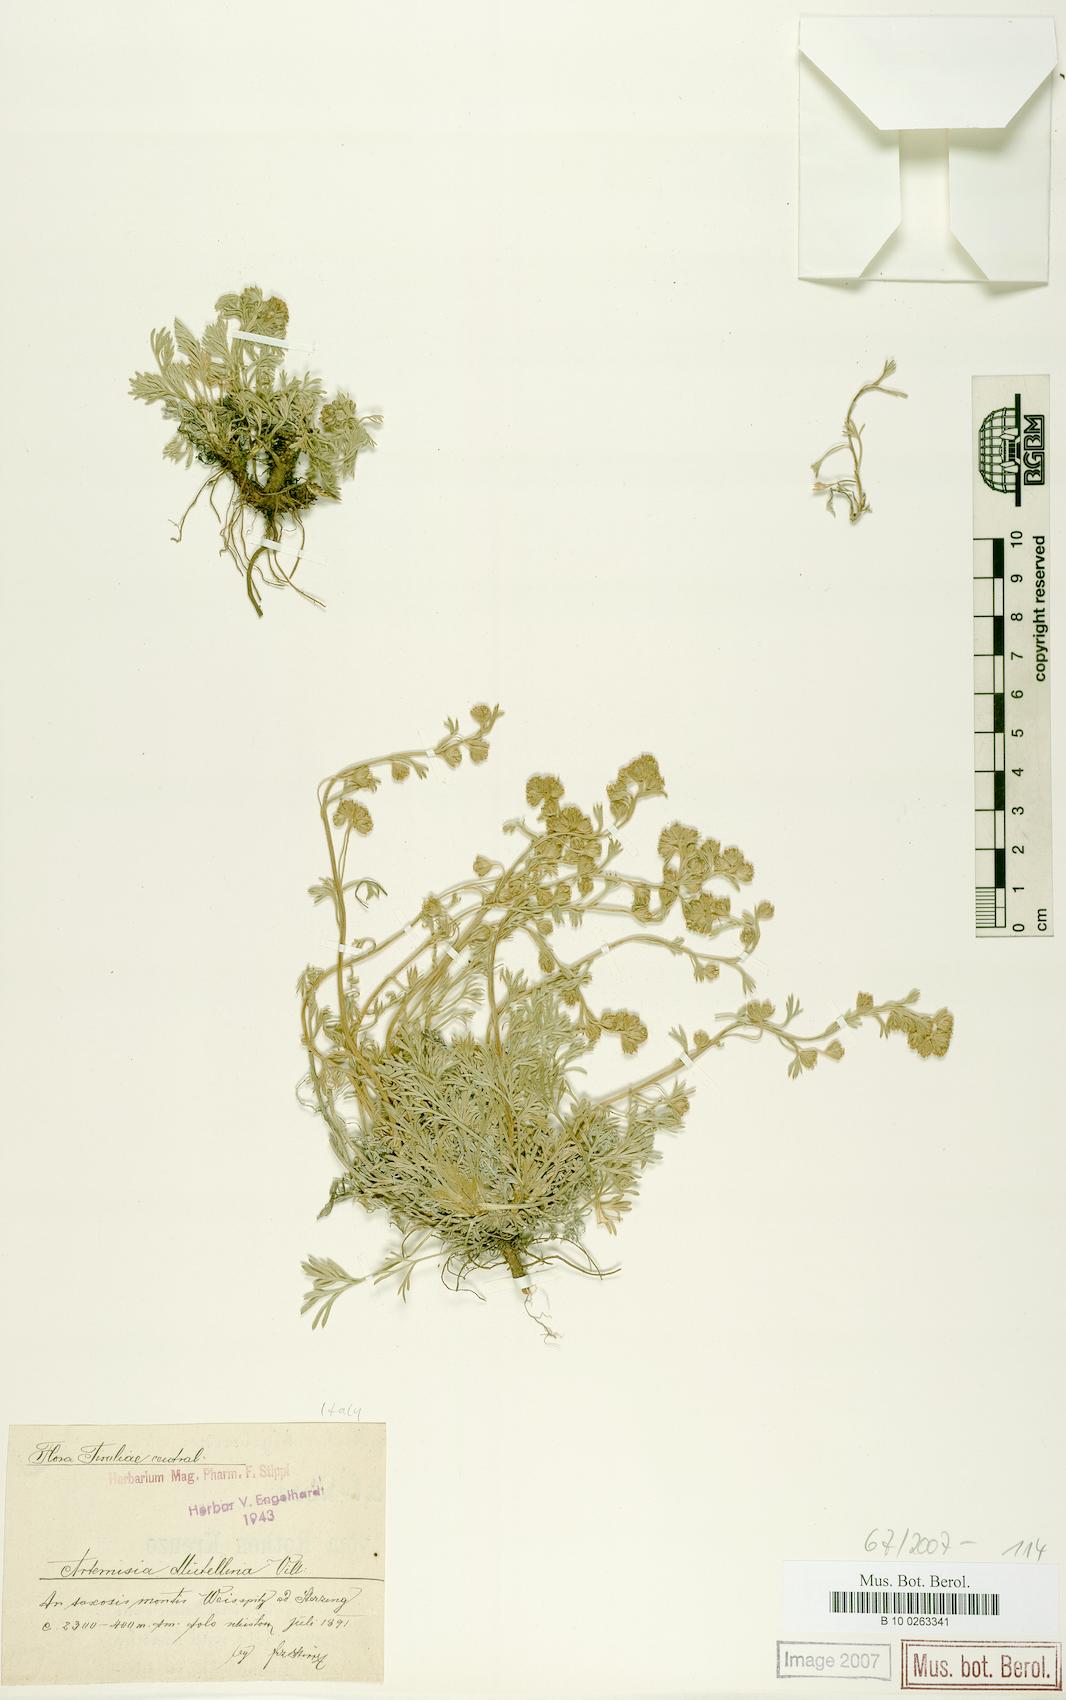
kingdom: Plantae
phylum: Tracheophyta
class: Magnoliopsida
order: Asterales
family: Asteraceae
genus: Artemisia
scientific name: Artemisia mutellina
